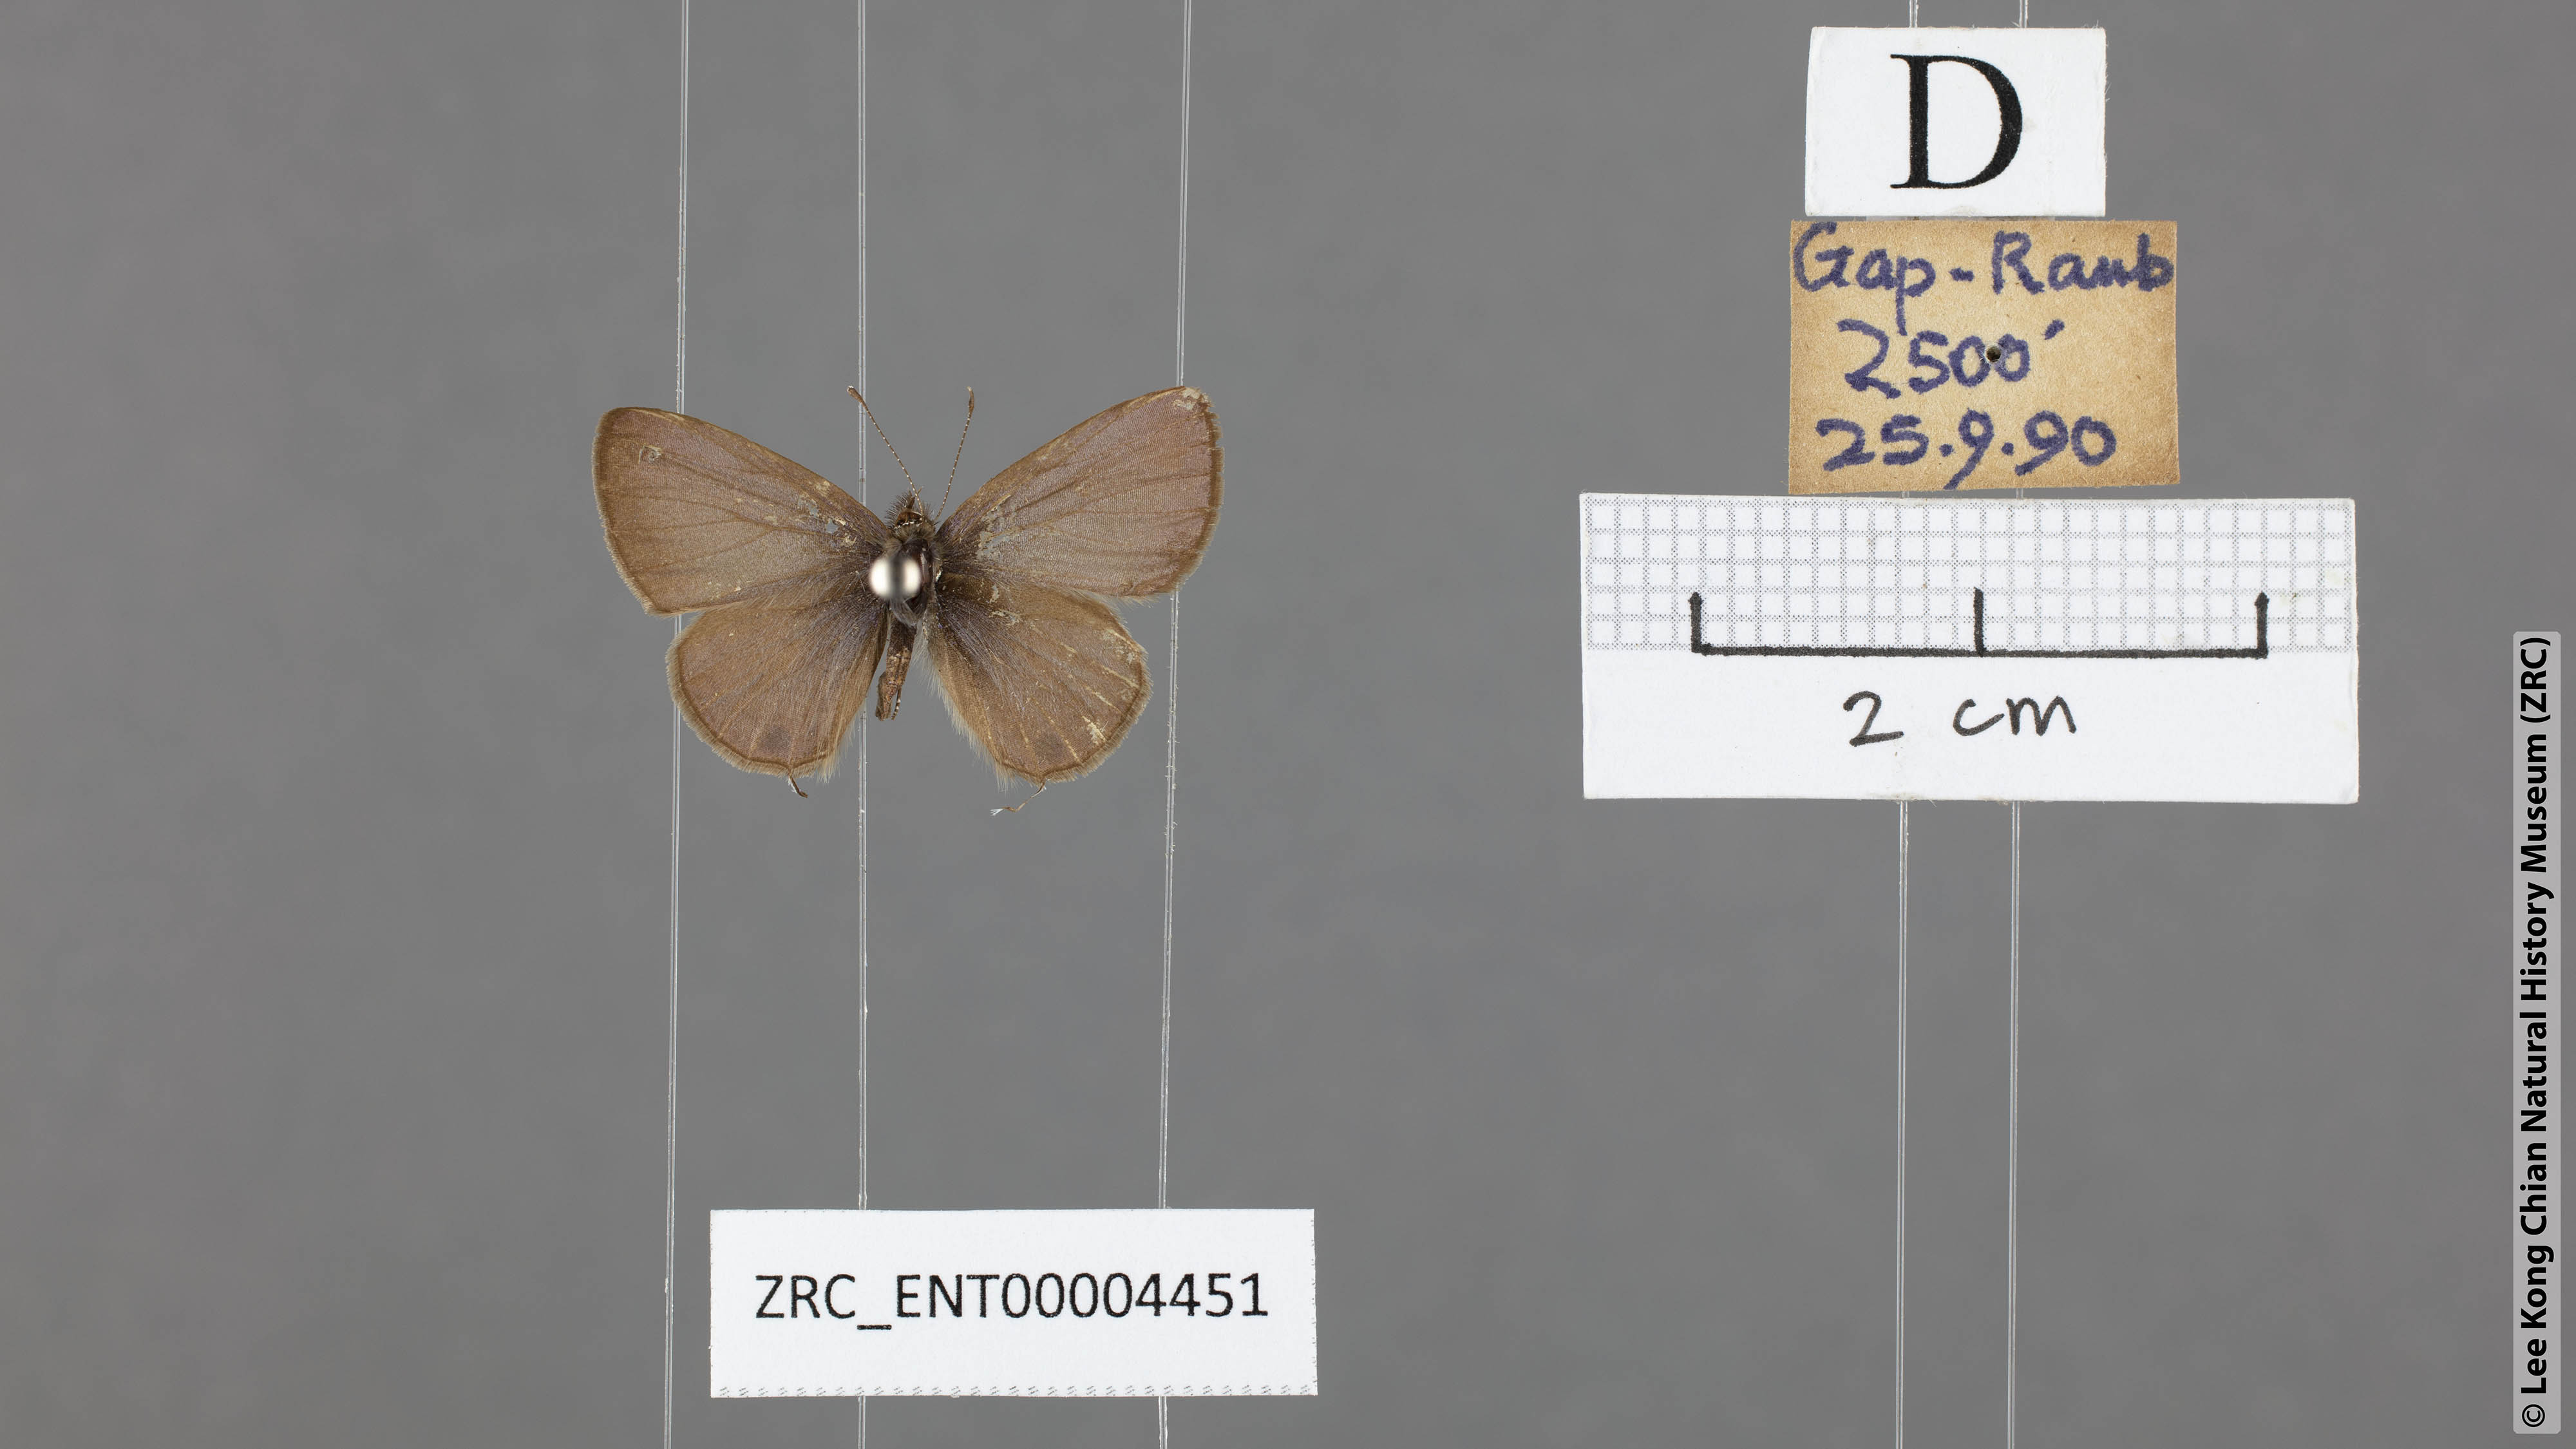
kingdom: Animalia
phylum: Arthropoda
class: Insecta
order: Lepidoptera
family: Lycaenidae
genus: Prosotas
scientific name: Prosotas bhutea
